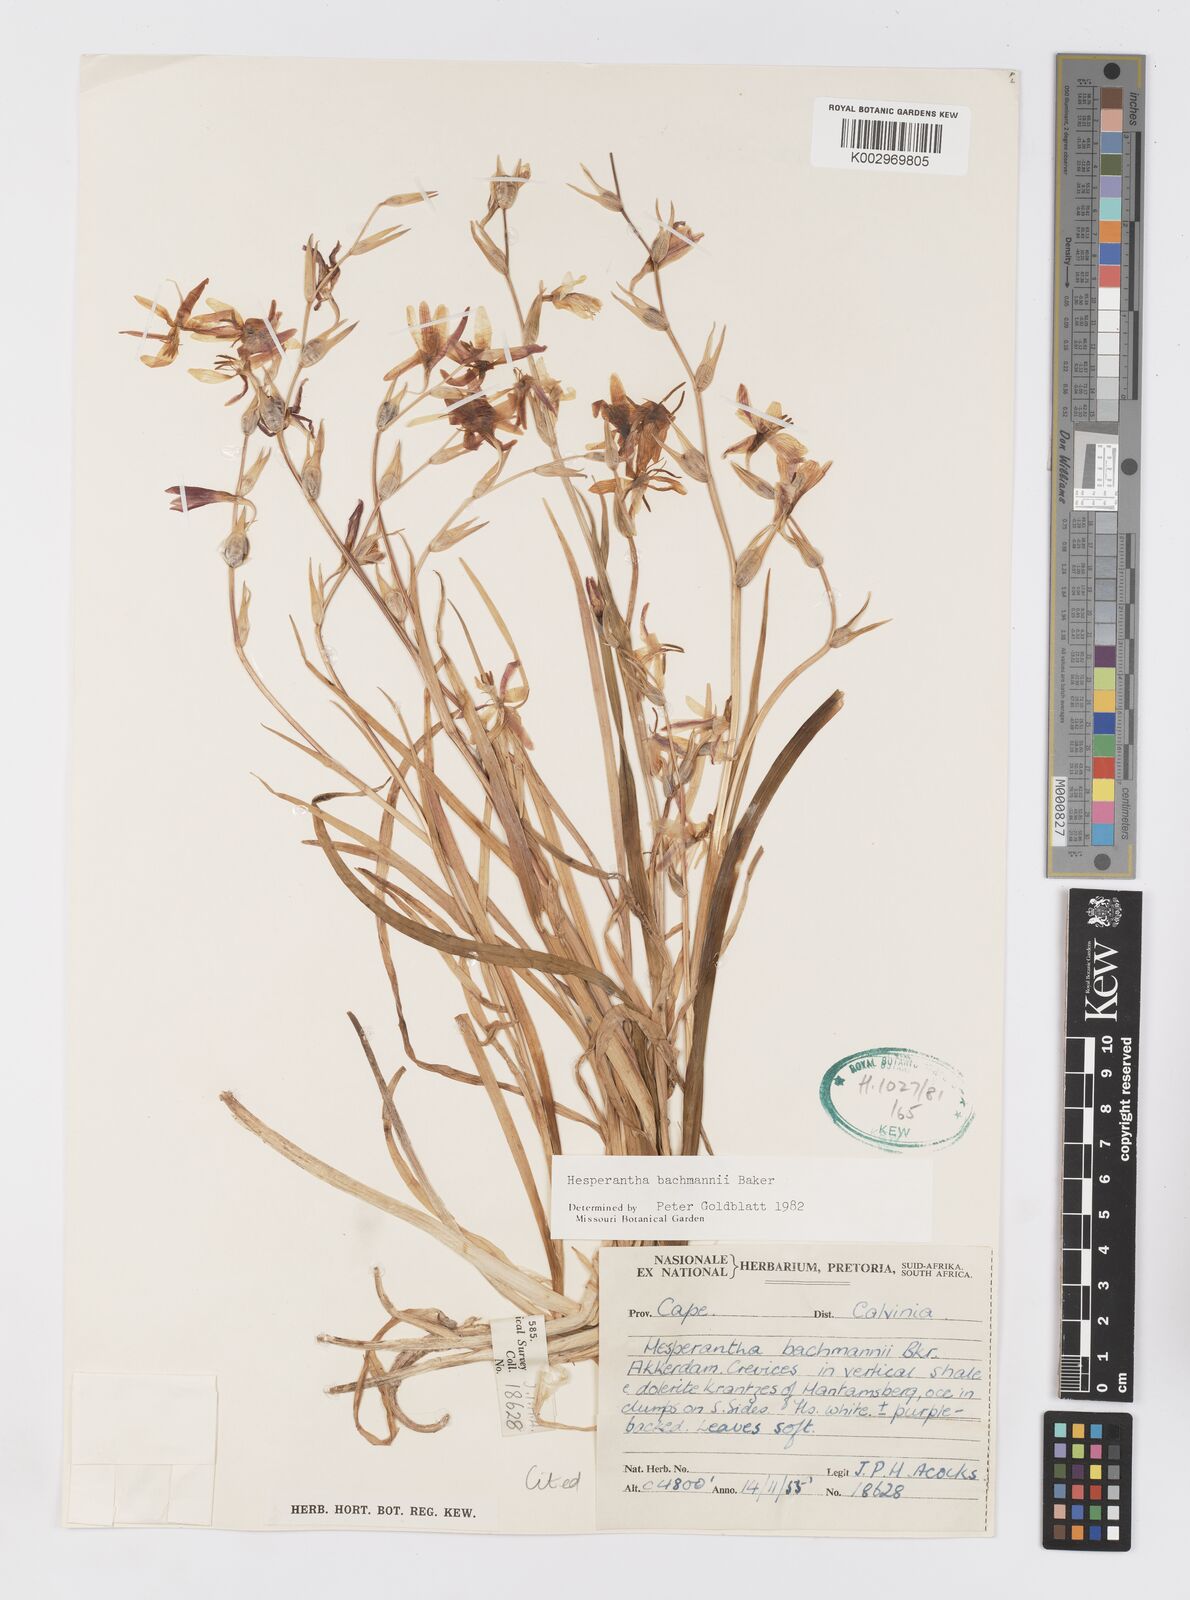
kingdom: Plantae
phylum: Tracheophyta
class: Liliopsida
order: Asparagales
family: Iridaceae
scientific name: Iridaceae
